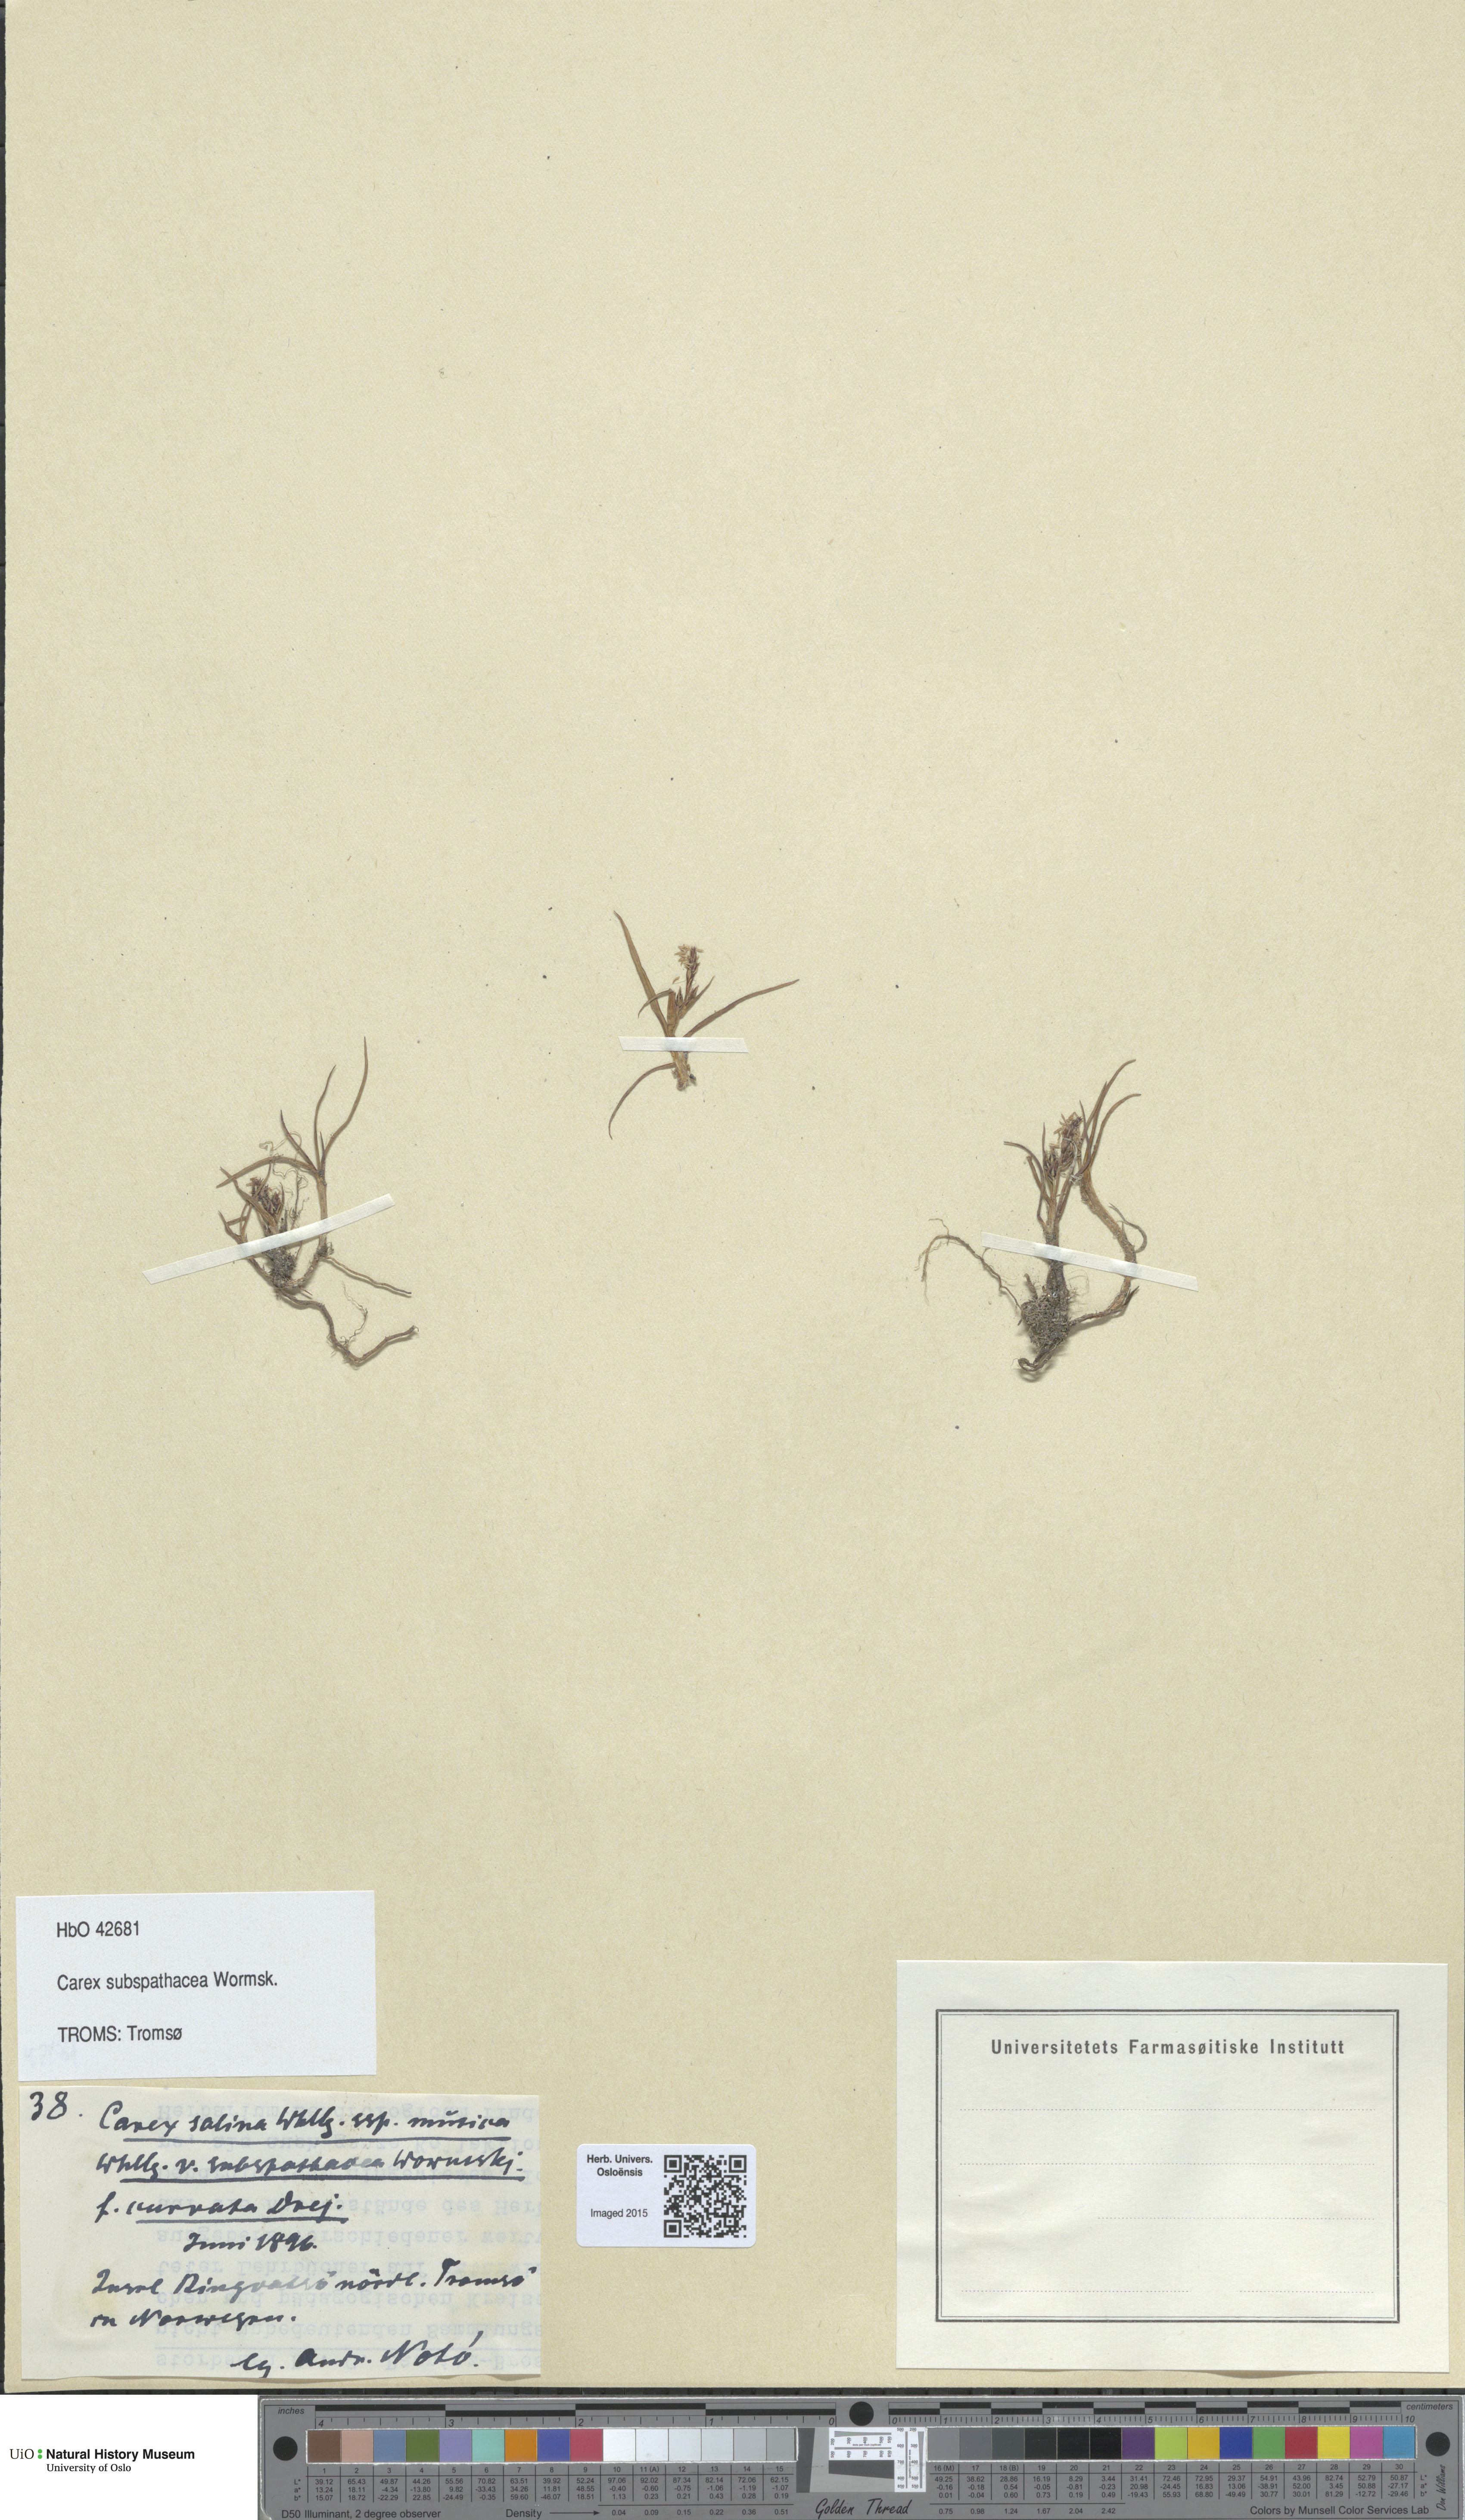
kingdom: Plantae
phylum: Tracheophyta
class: Liliopsida
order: Poales
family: Cyperaceae
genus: Carex
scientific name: Carex subspathacea
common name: Hoppner's sedge
